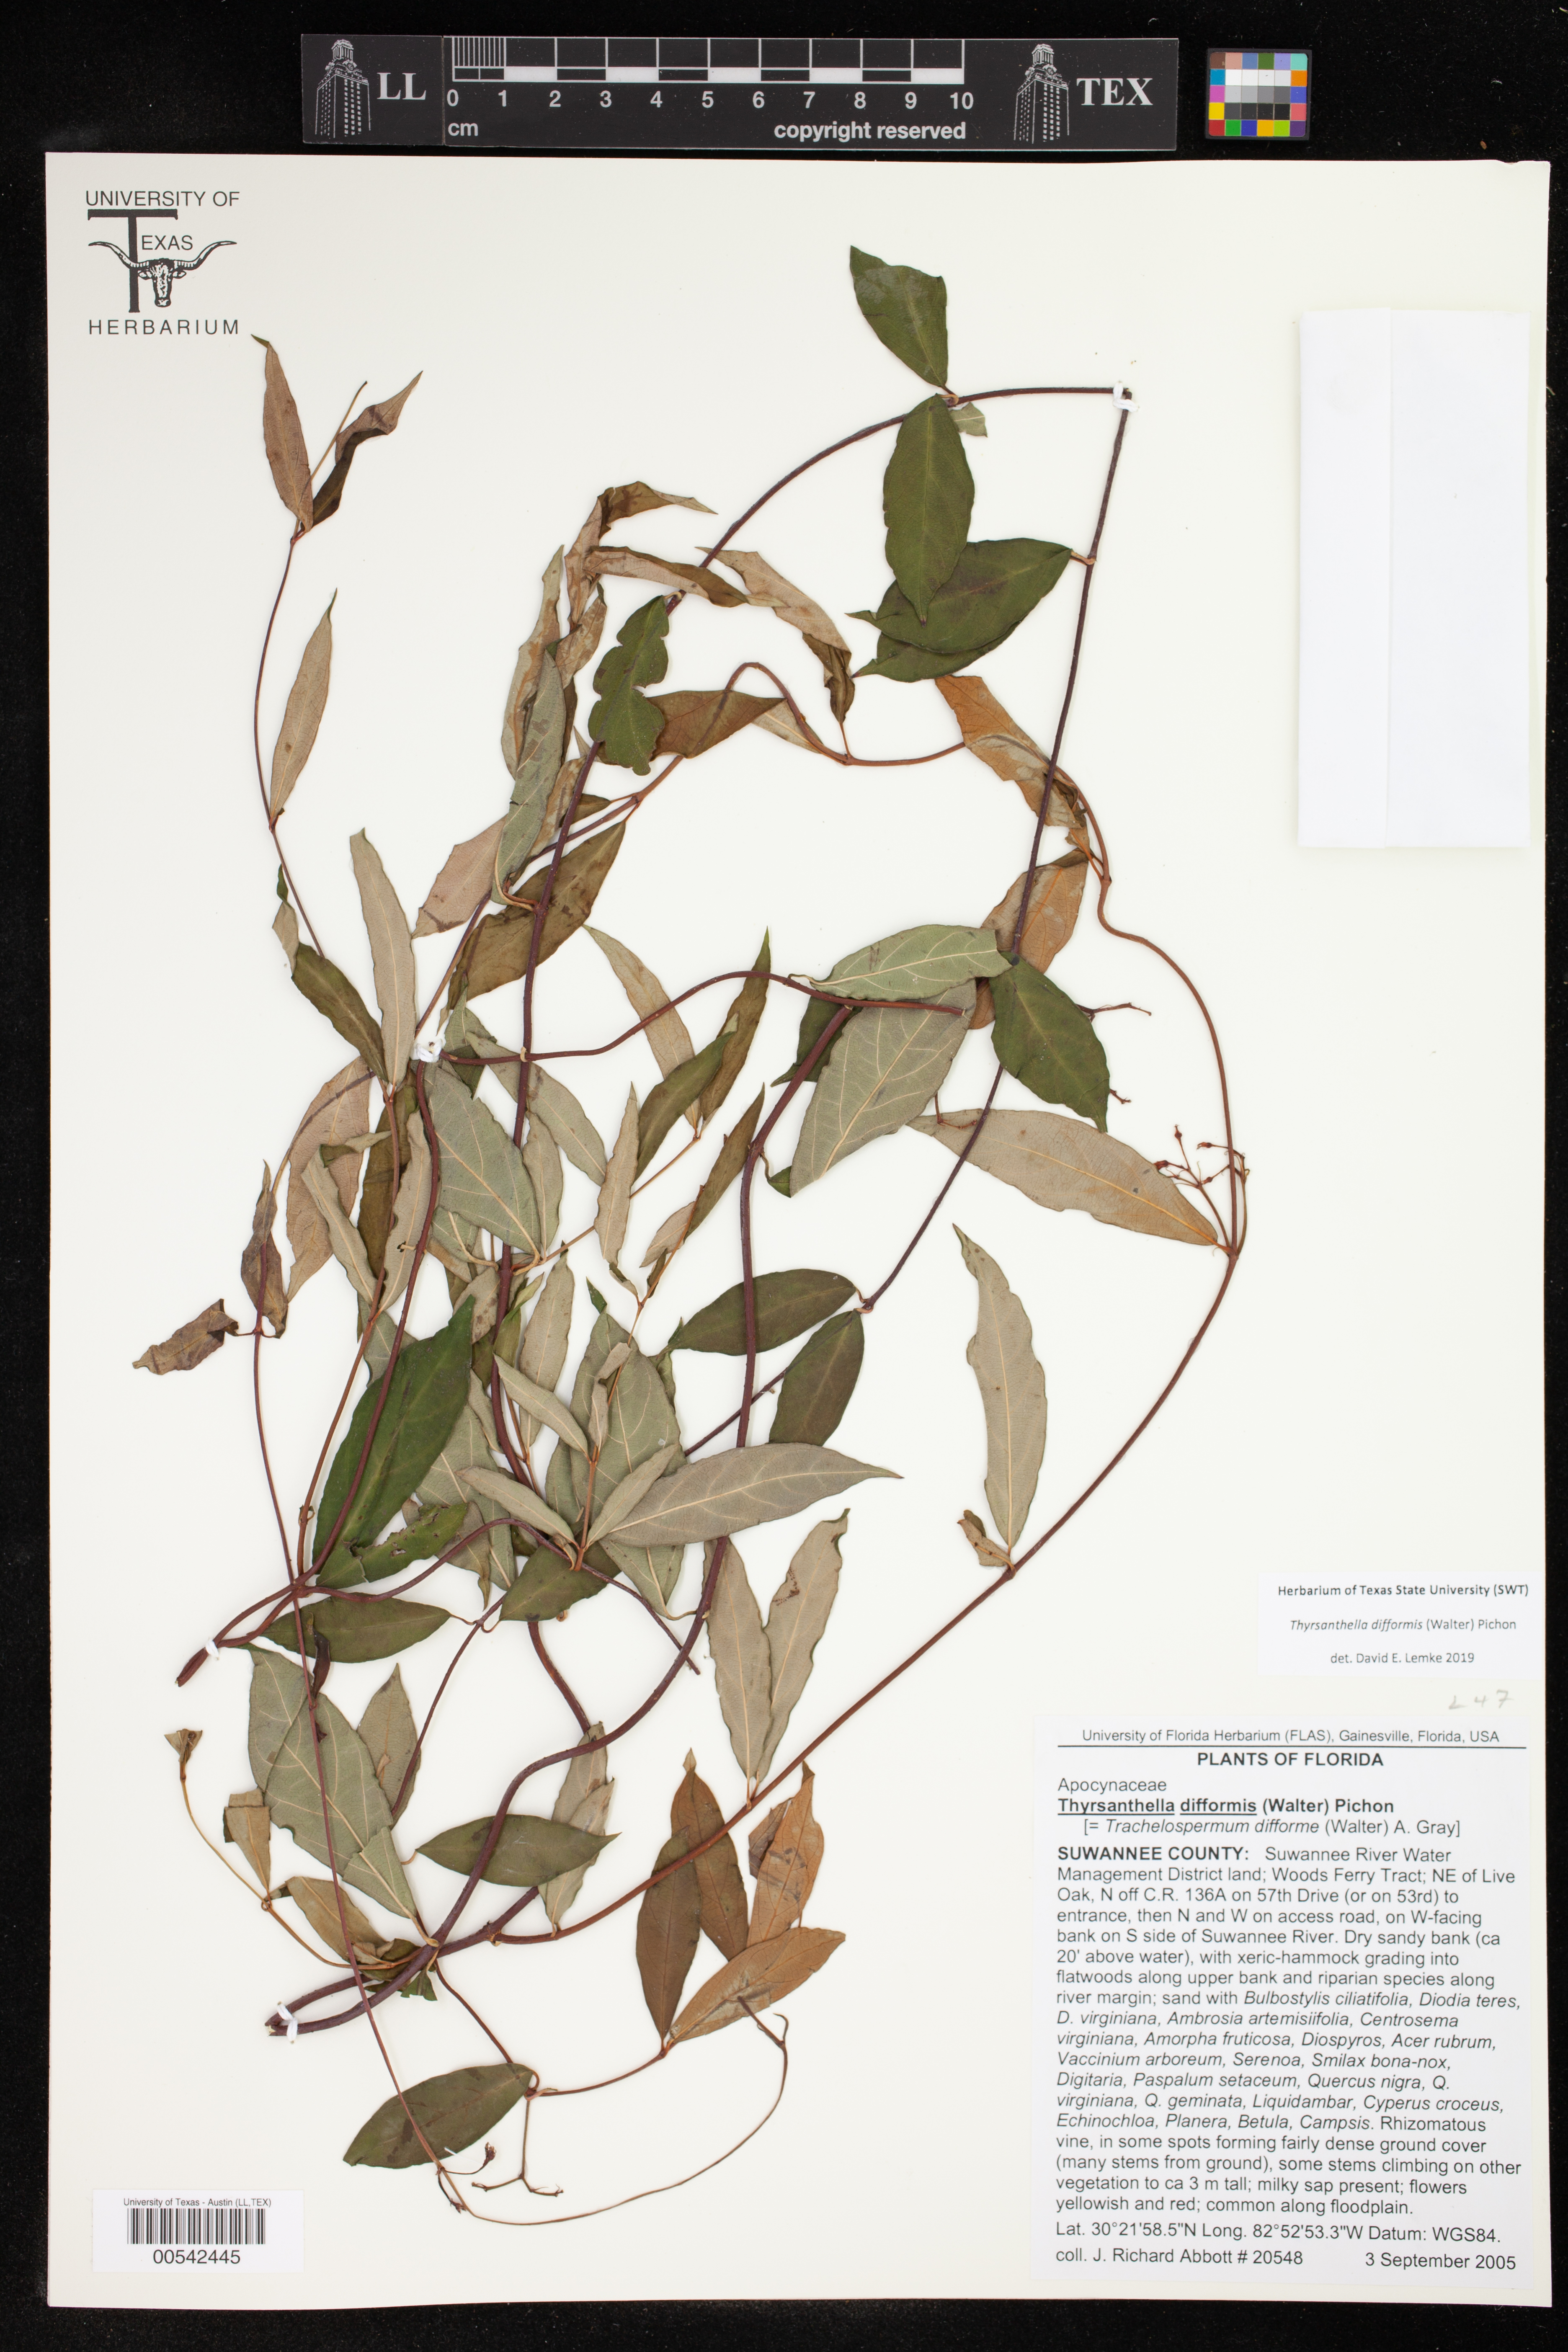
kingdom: Plantae
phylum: Tracheophyta
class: Magnoliopsida
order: Gentianales
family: Apocynaceae
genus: Thyrsanthella
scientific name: Thyrsanthella difformis
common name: Climbing dogbane
